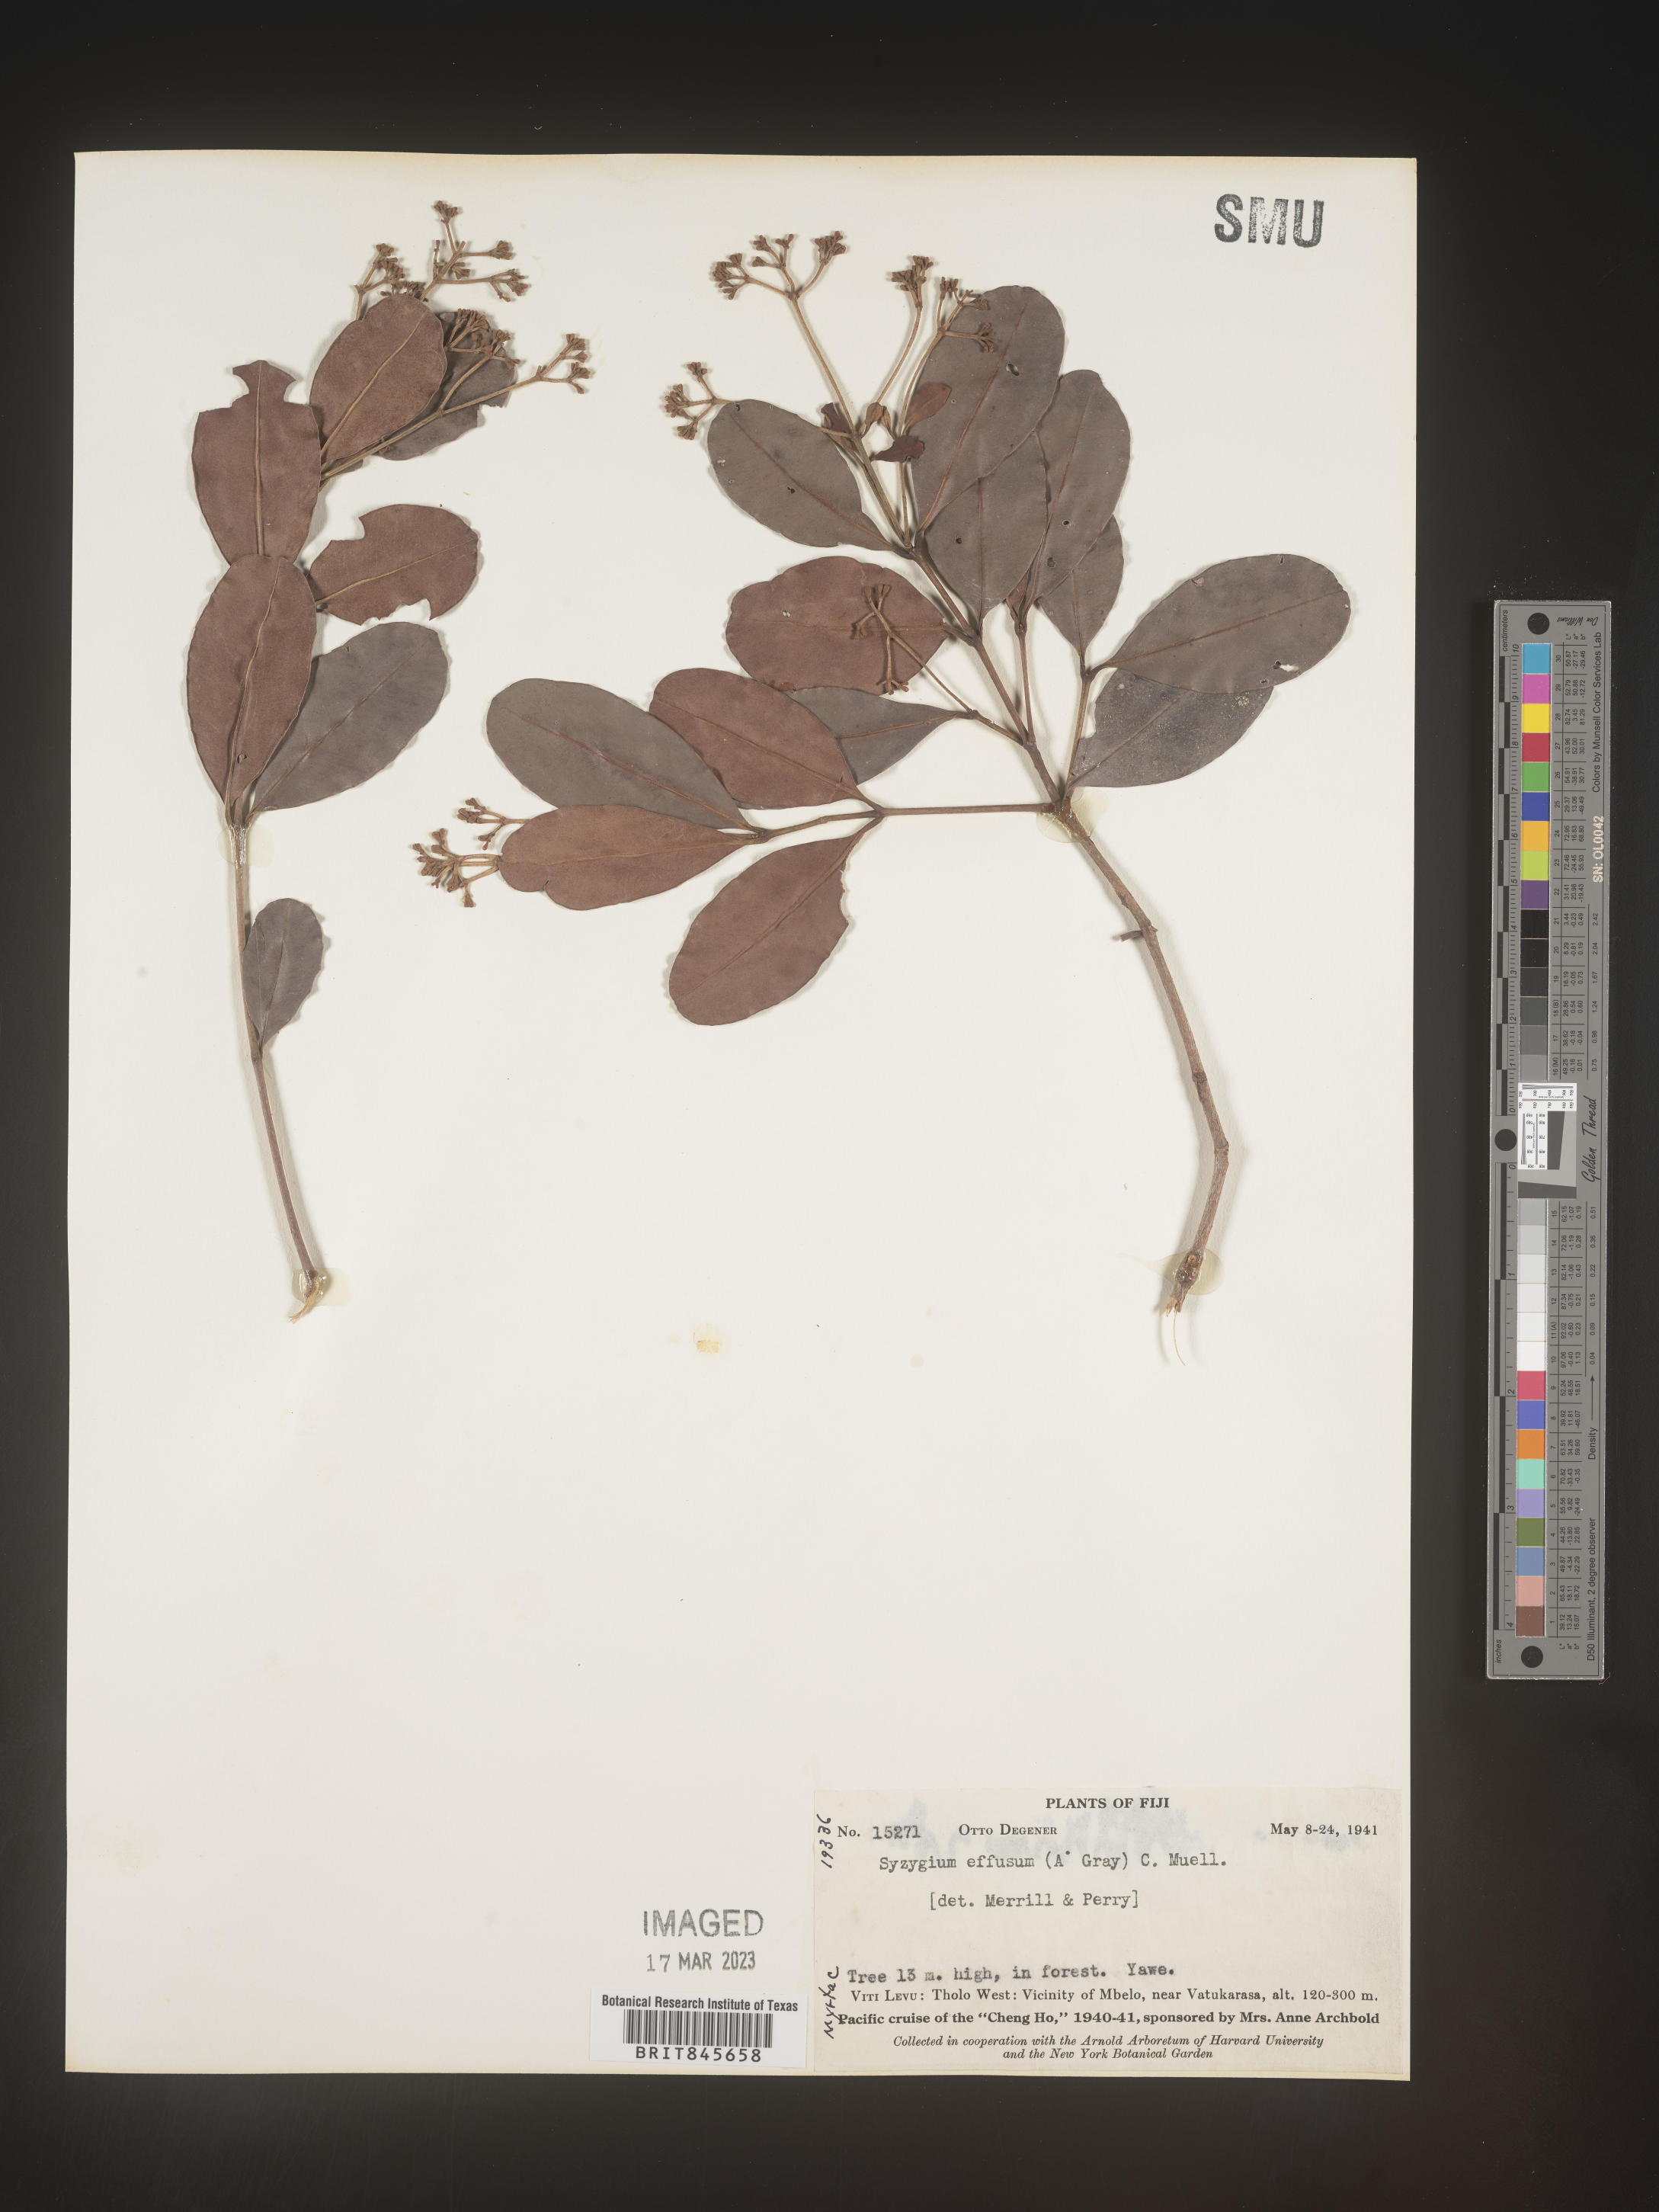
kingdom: Plantae
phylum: Tracheophyta
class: Magnoliopsida
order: Myrtales
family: Myrtaceae
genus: Syzygium
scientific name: Syzygium
